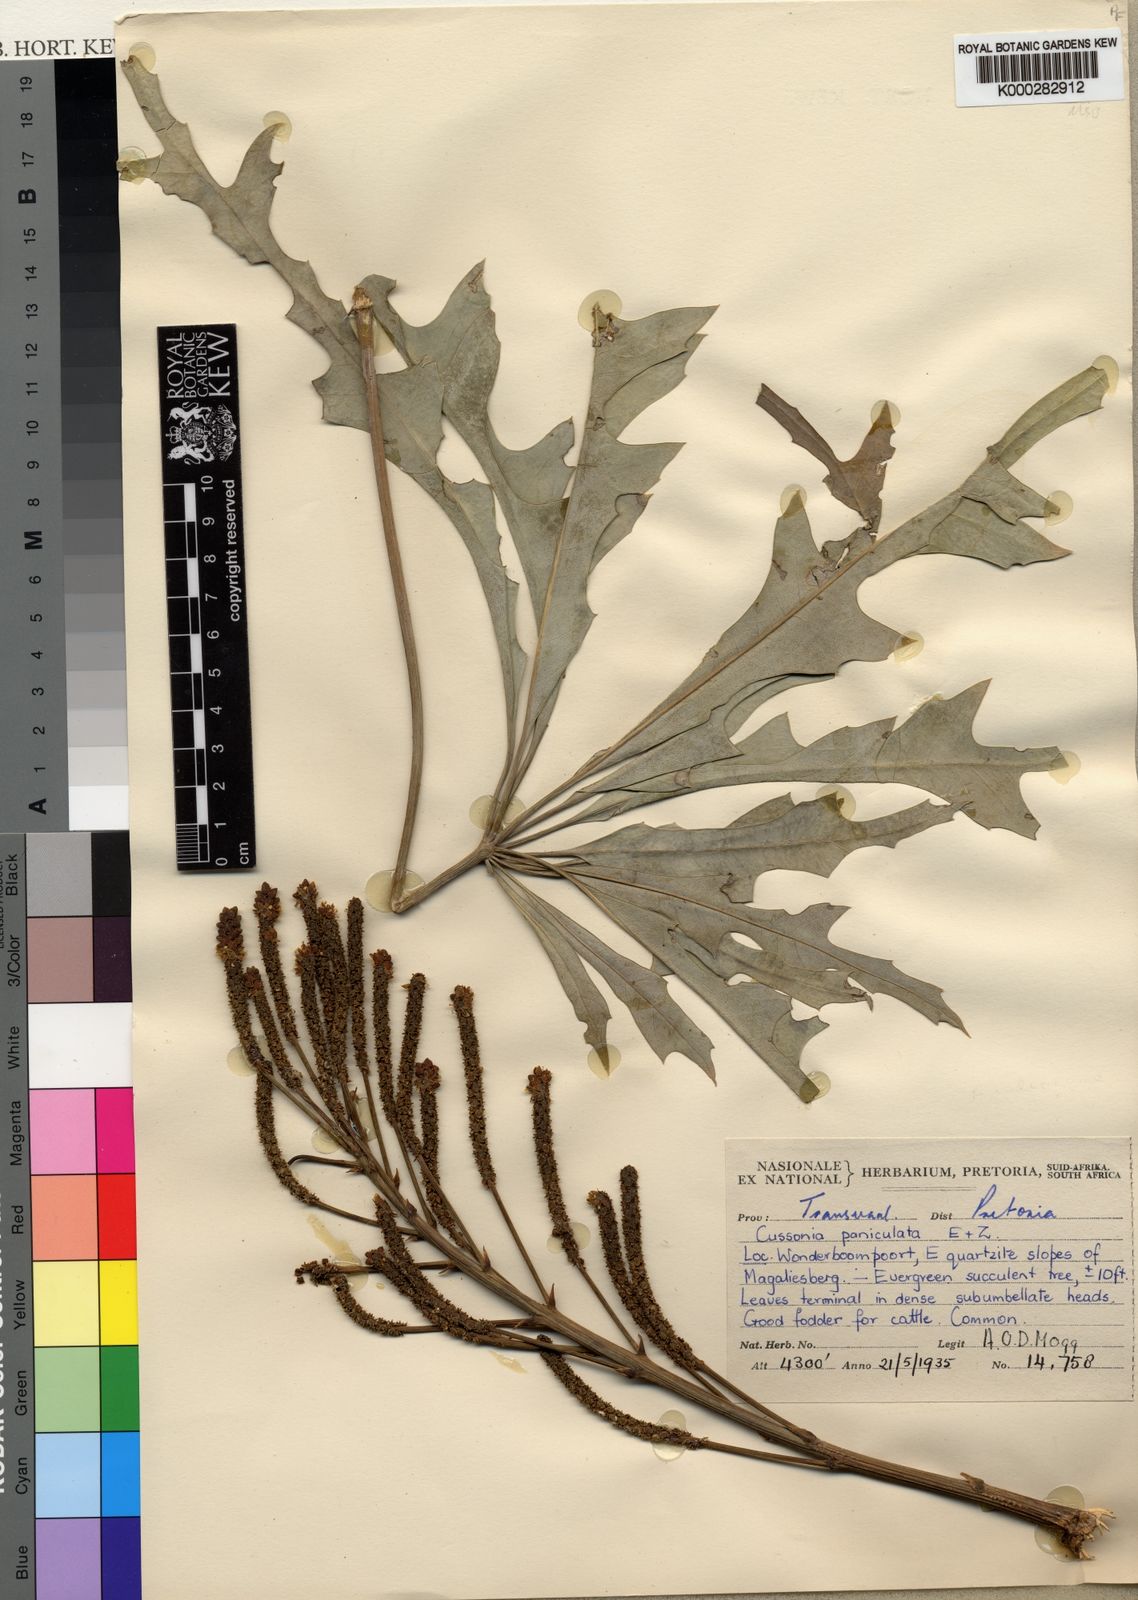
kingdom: Plantae
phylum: Tracheophyta
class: Magnoliopsida
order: Apiales
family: Araliaceae
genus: Cussonia
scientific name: Cussonia paniculata
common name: Cabbagetree
